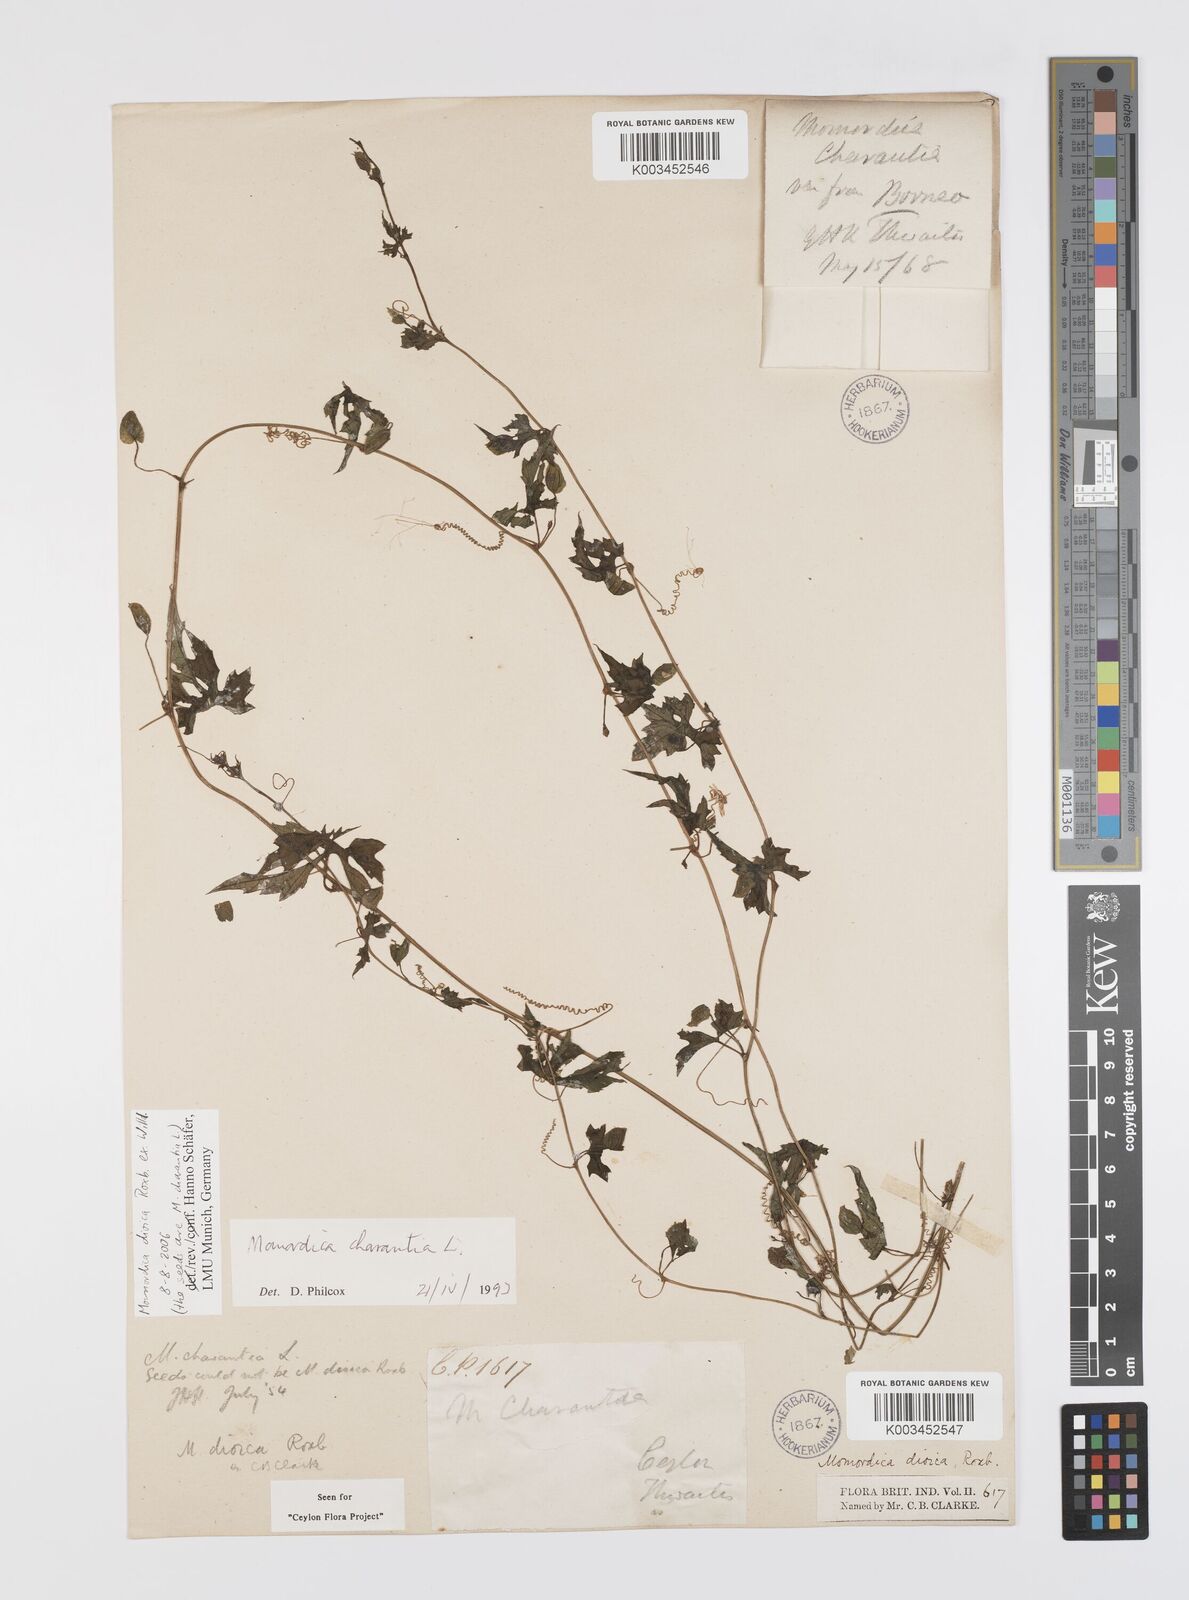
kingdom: Plantae
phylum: Tracheophyta
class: Magnoliopsida
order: Cucurbitales
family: Cucurbitaceae
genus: Momordica
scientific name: Momordica dioica
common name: Spine gourd
